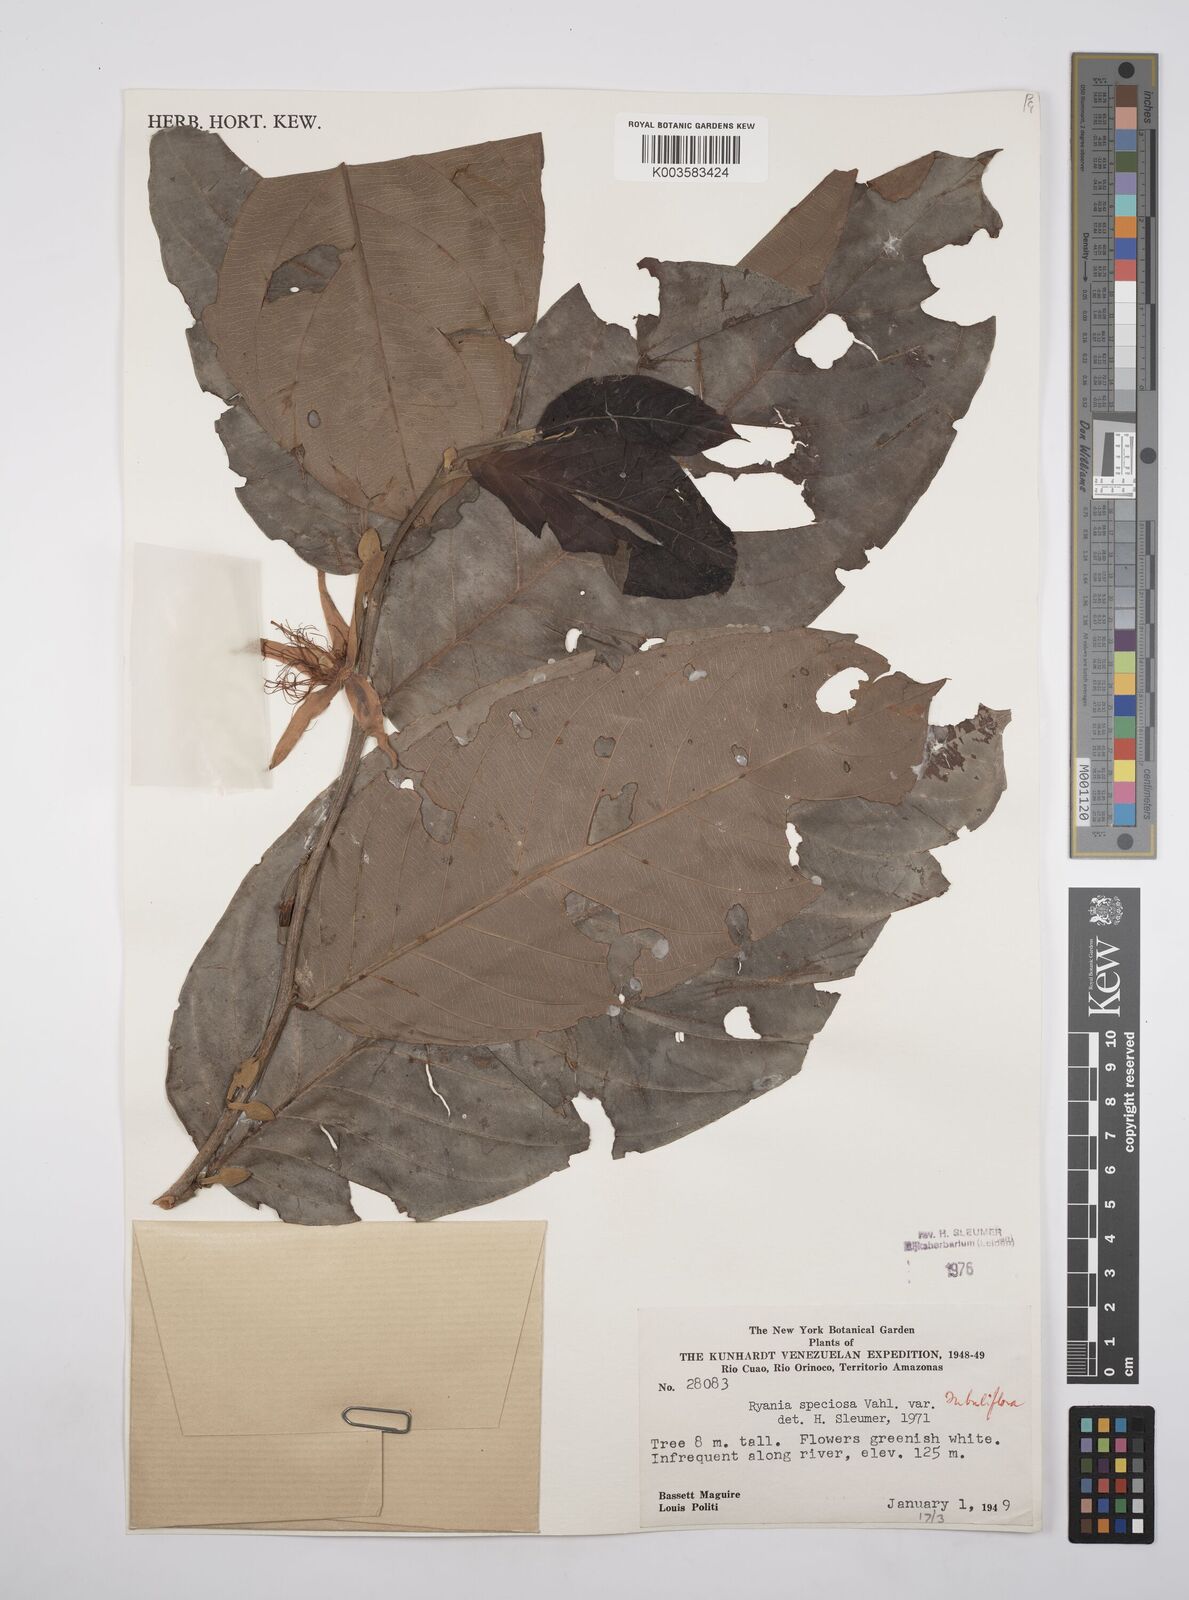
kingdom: Plantae
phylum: Tracheophyta
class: Magnoliopsida
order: Malpighiales
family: Salicaceae
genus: Ryania
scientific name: Ryania speciosa
